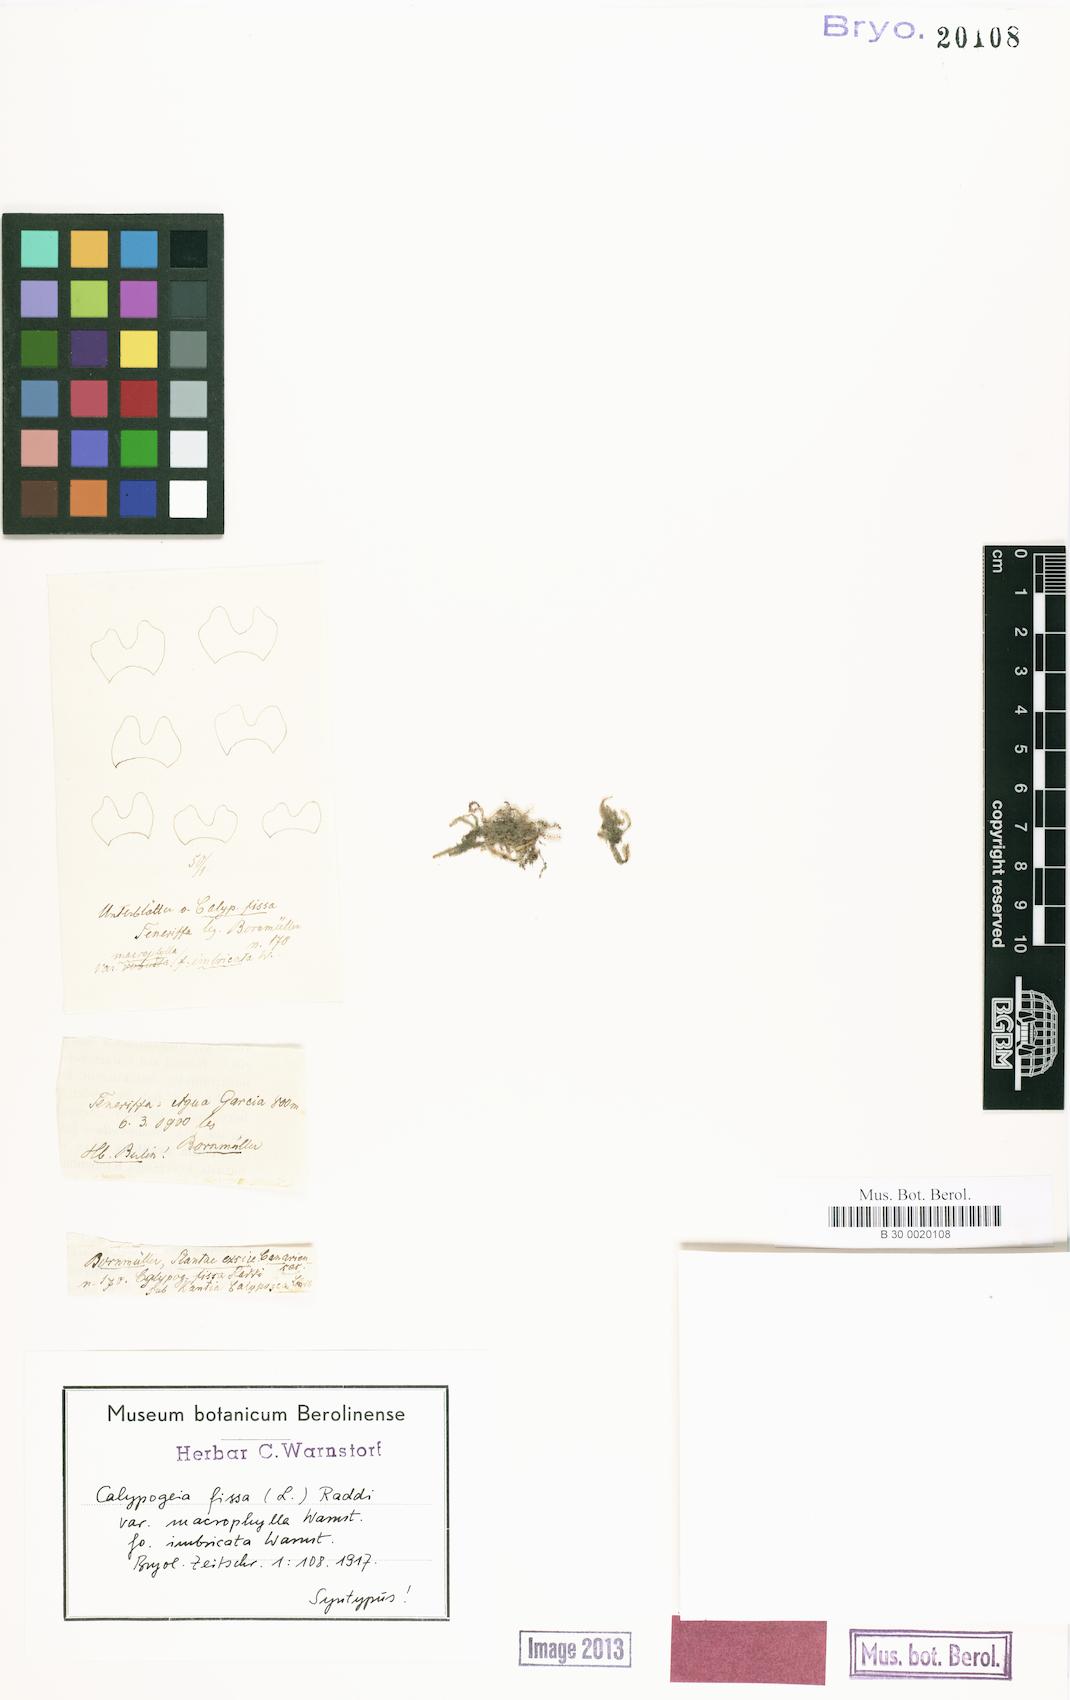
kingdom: Plantae
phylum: Marchantiophyta
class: Jungermanniopsida
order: Jungermanniales
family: Calypogeiaceae
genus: Calypogeia
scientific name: Calypogeia fissa
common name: Common pouchwort
